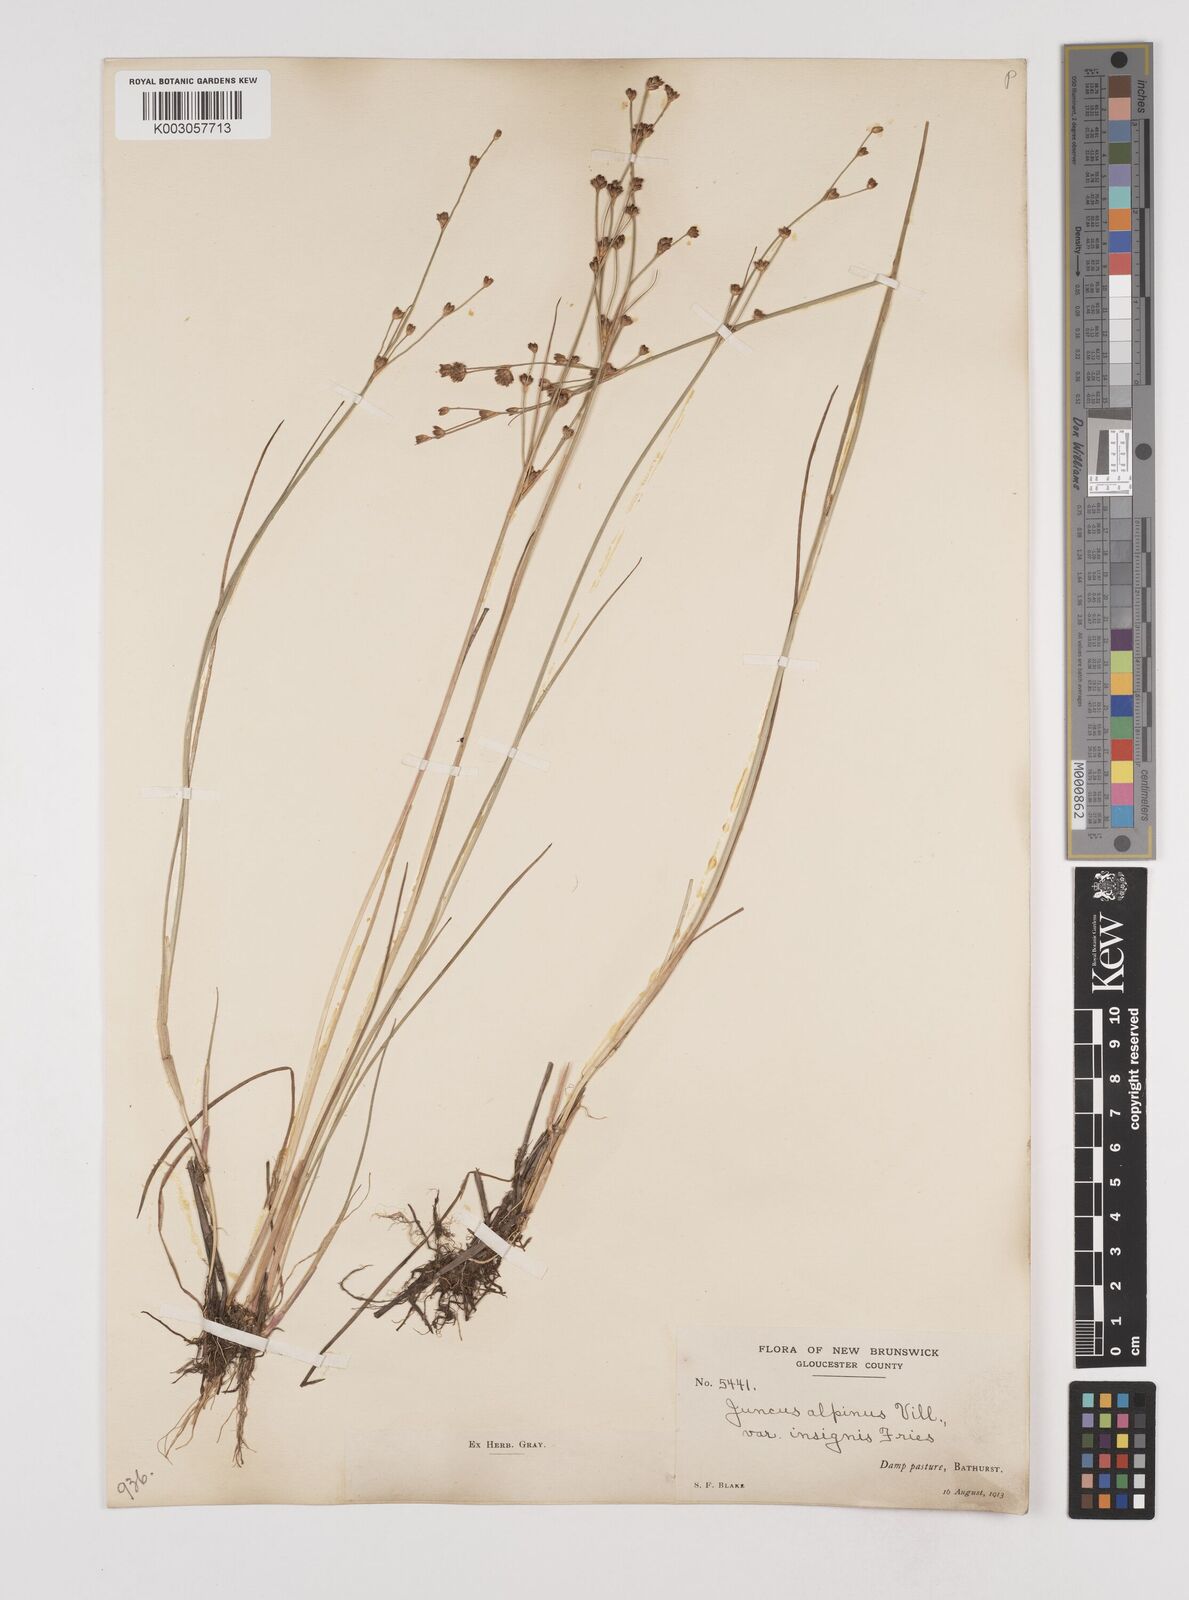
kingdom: Plantae
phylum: Tracheophyta
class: Liliopsida
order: Poales
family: Juncaceae
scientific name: Juncaceae
